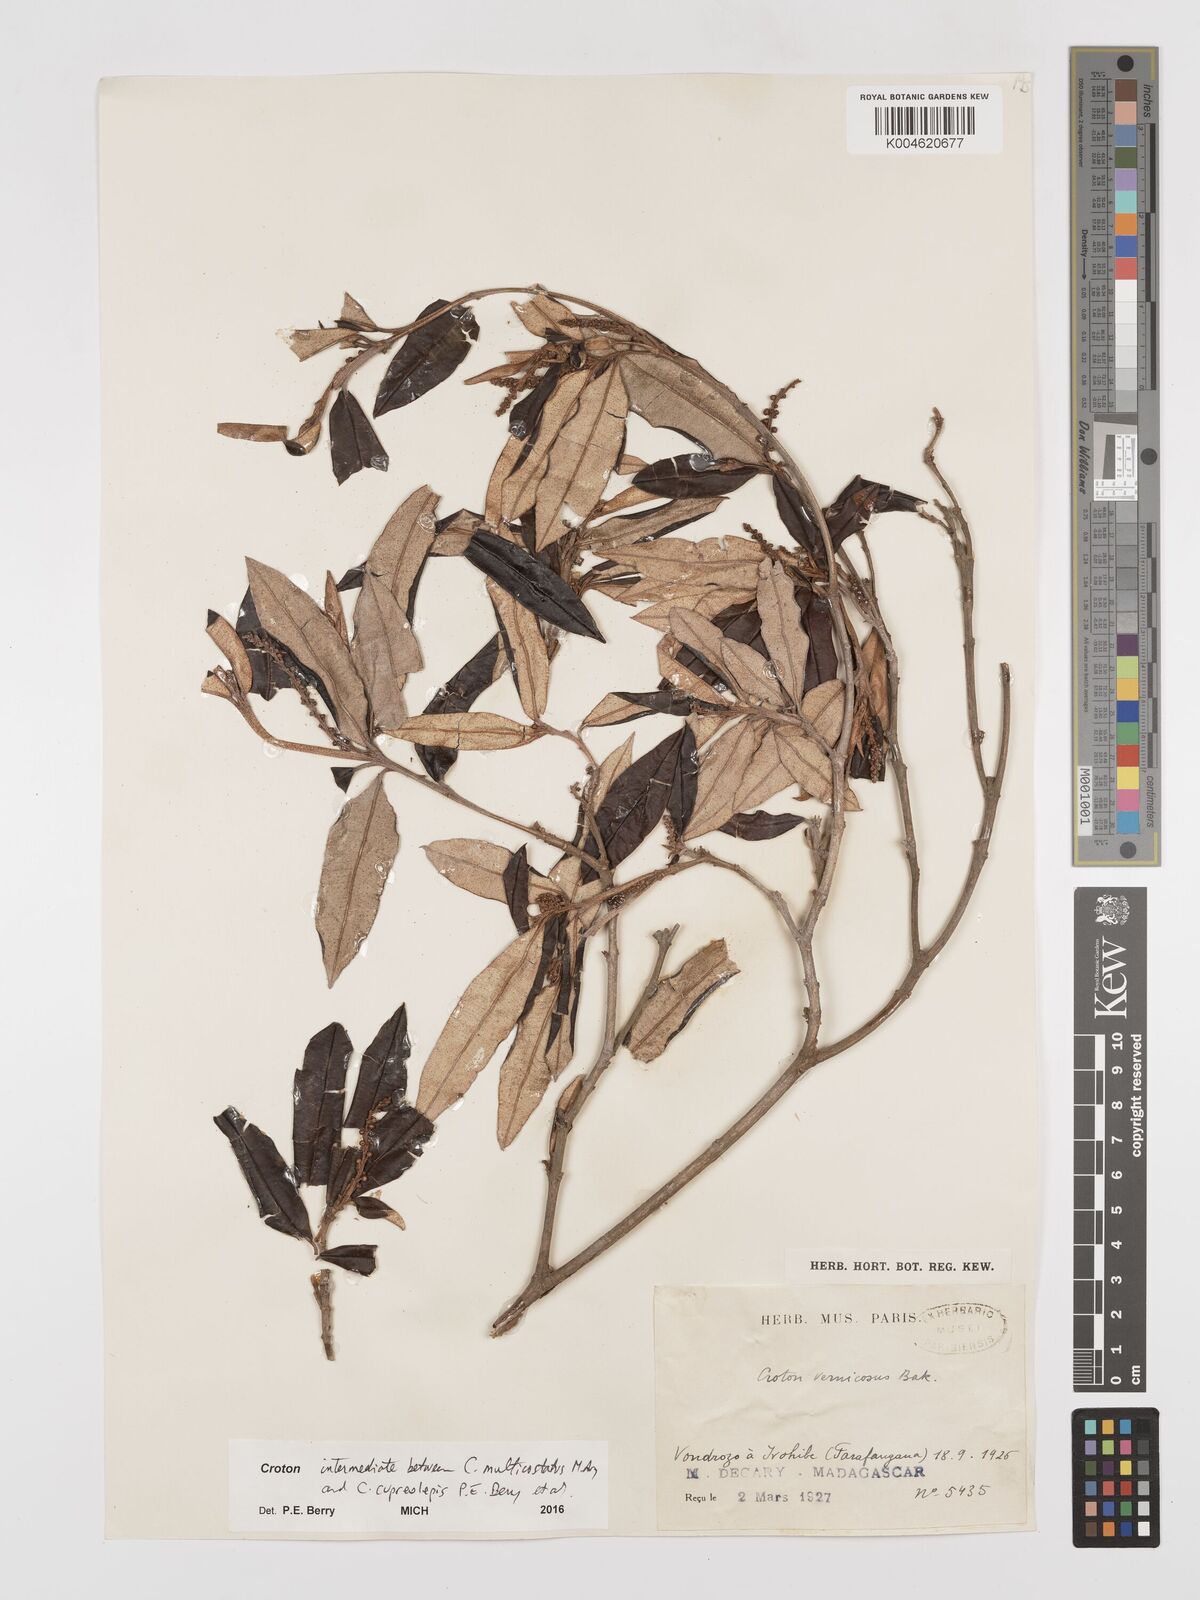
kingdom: Plantae
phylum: Tracheophyta
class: Magnoliopsida
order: Malpighiales
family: Euphorbiaceae
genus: Croton
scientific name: Croton multicostatus
